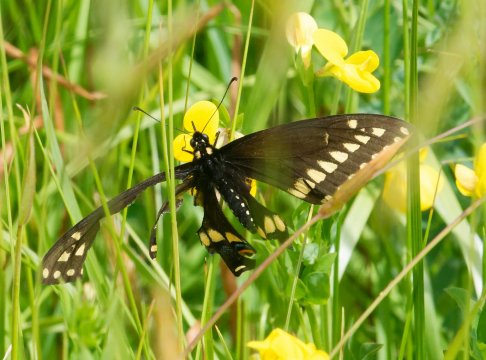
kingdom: Animalia
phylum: Arthropoda
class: Insecta
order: Lepidoptera
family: Papilionidae
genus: Papilio
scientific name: Papilio polyxenes
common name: Black Swallowtail
